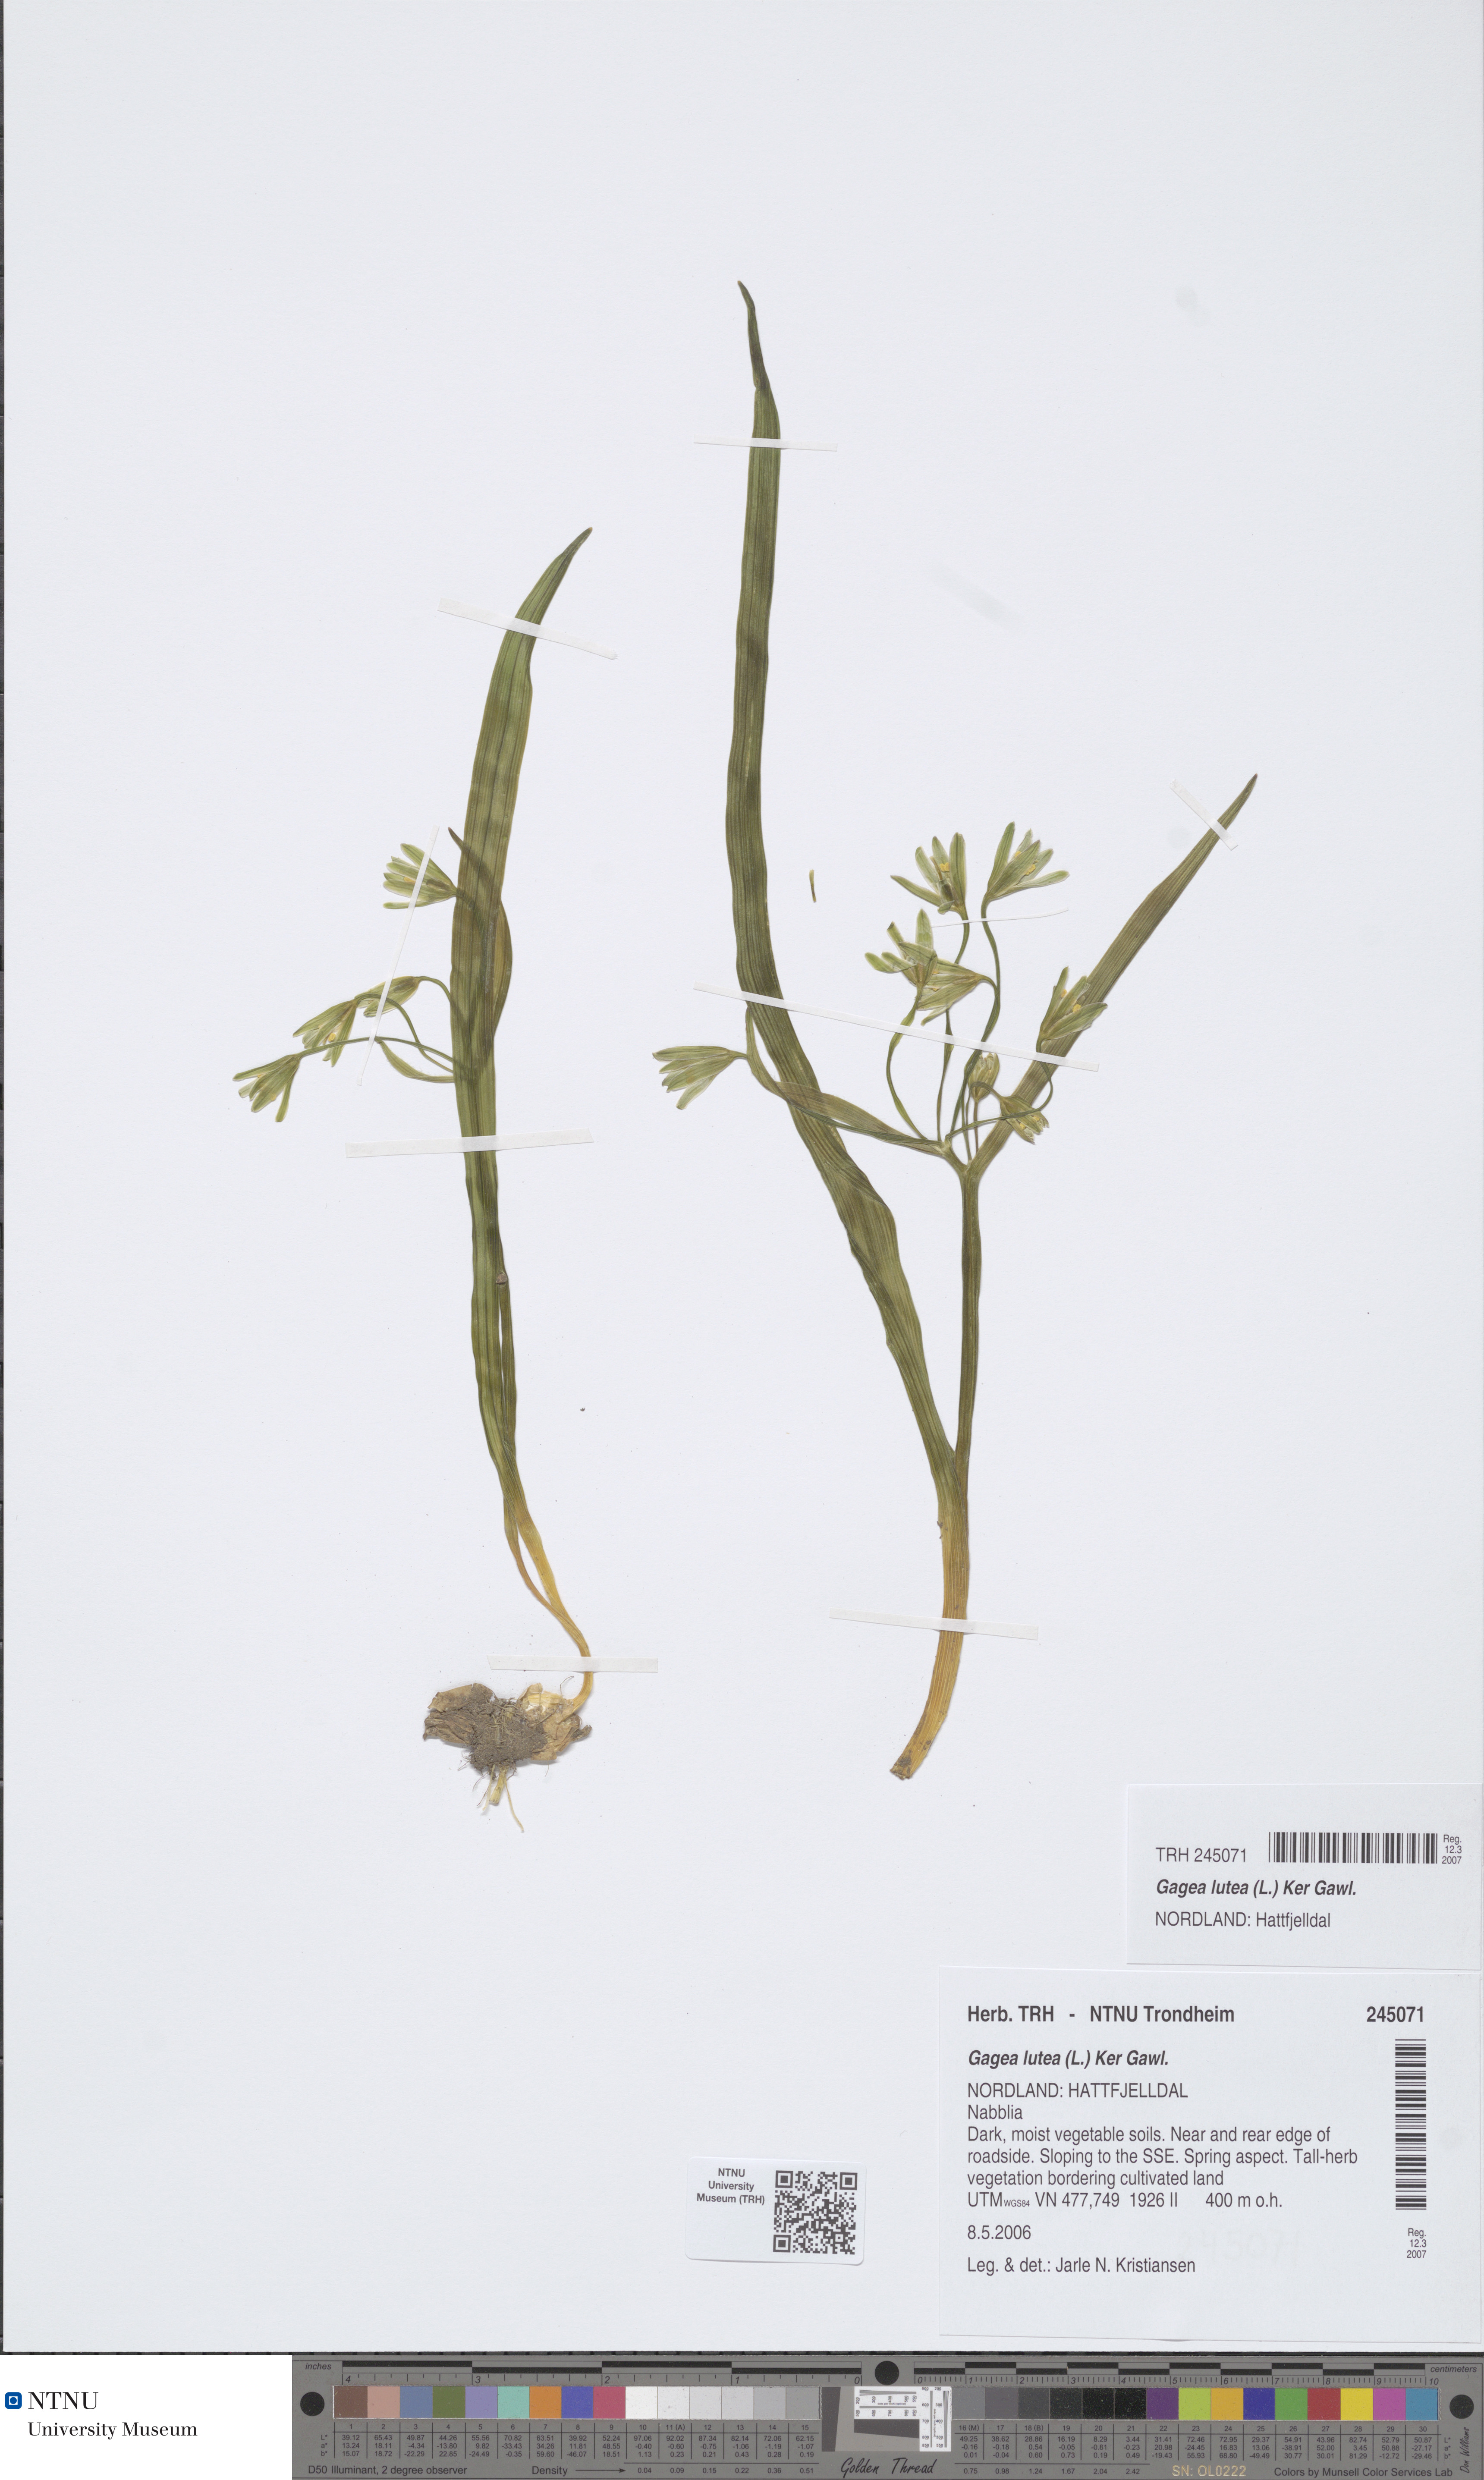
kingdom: Plantae
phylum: Tracheophyta
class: Liliopsida
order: Liliales
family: Liliaceae
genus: Gagea
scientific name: Gagea lutea
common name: Yellow star-of-bethlehem
